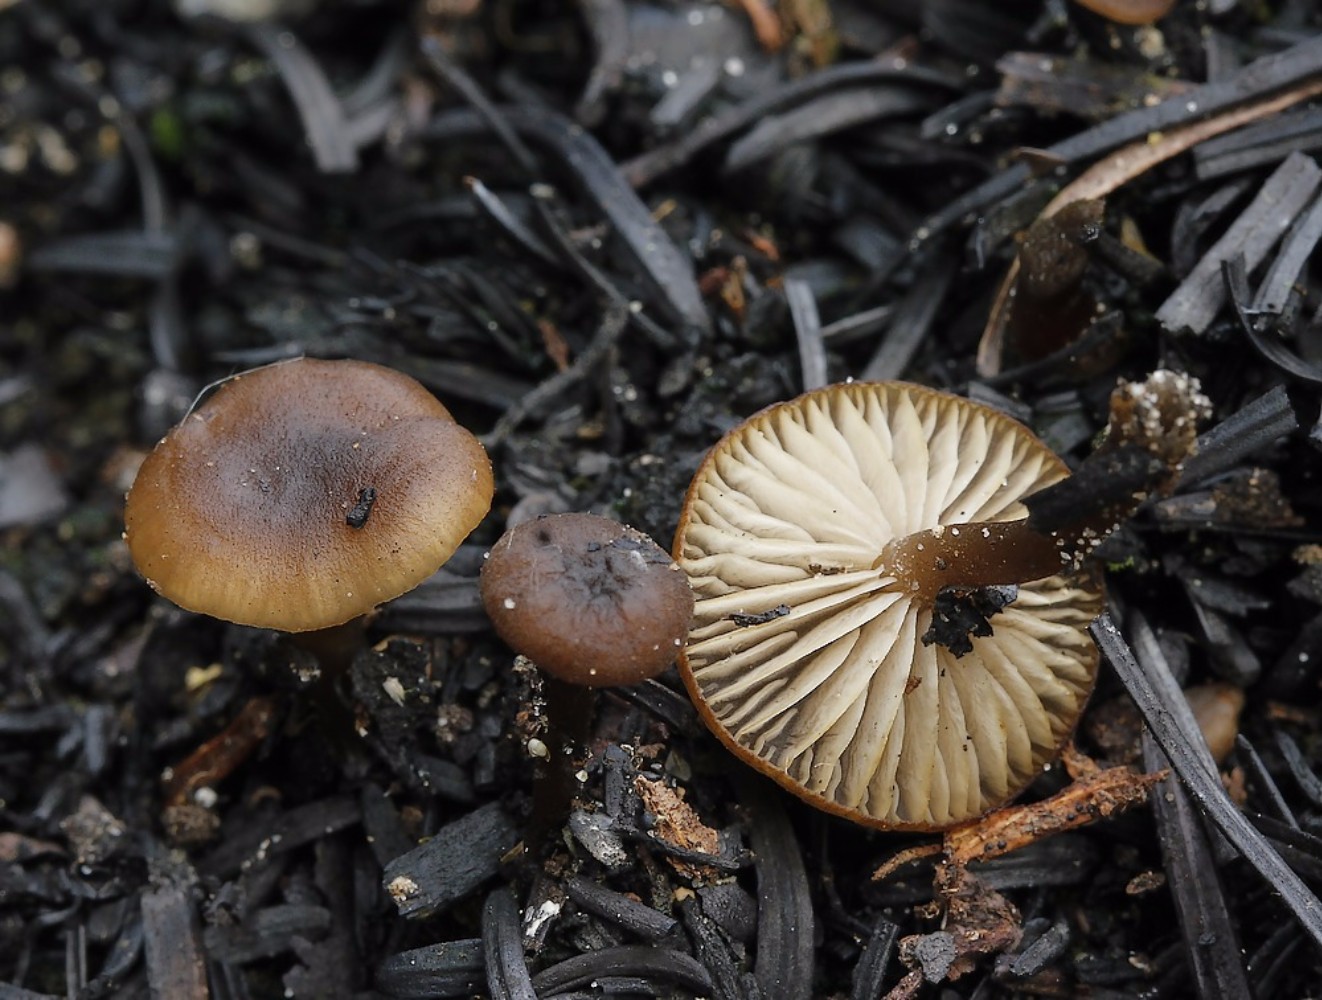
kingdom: Fungi
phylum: Basidiomycota
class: Agaricomycetes
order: Agaricales
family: Lyophyllaceae
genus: Tephrocybe
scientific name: Tephrocybe anthracophila
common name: svedje-gråblad
